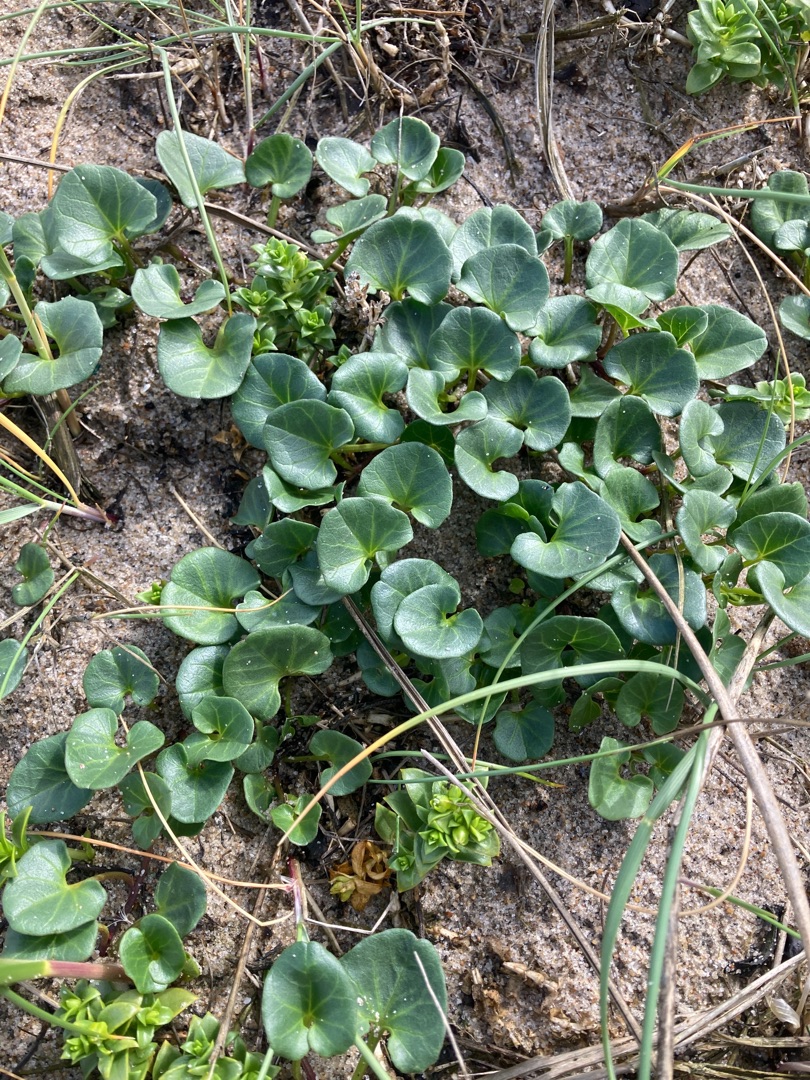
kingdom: Plantae
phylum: Tracheophyta
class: Magnoliopsida
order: Solanales
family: Convolvulaceae
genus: Calystegia
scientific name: Calystegia soldanella
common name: Strand-snerle
